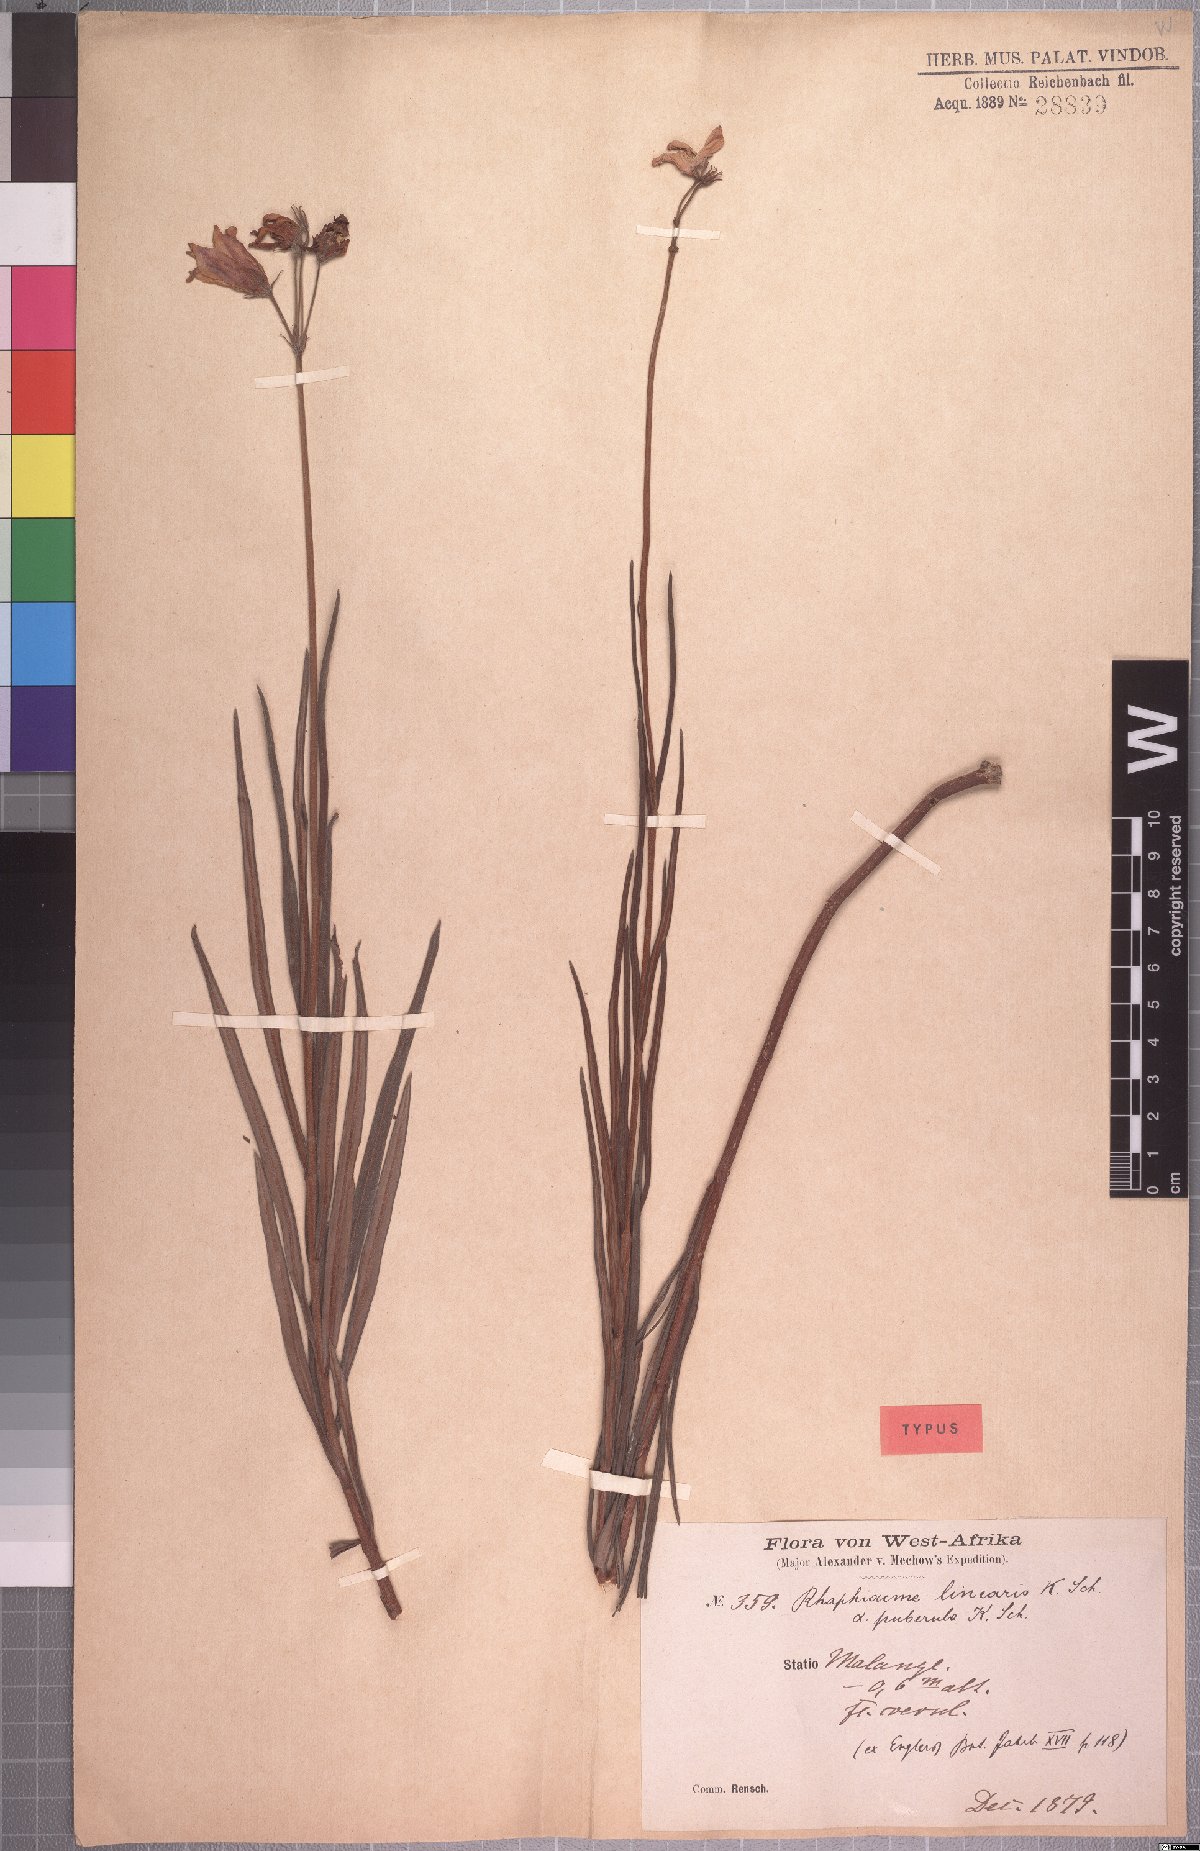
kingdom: Plantae
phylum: Tracheophyta
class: Magnoliopsida
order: Gentianales
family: Apocynaceae
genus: Raphionacme
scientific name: Raphionacme
